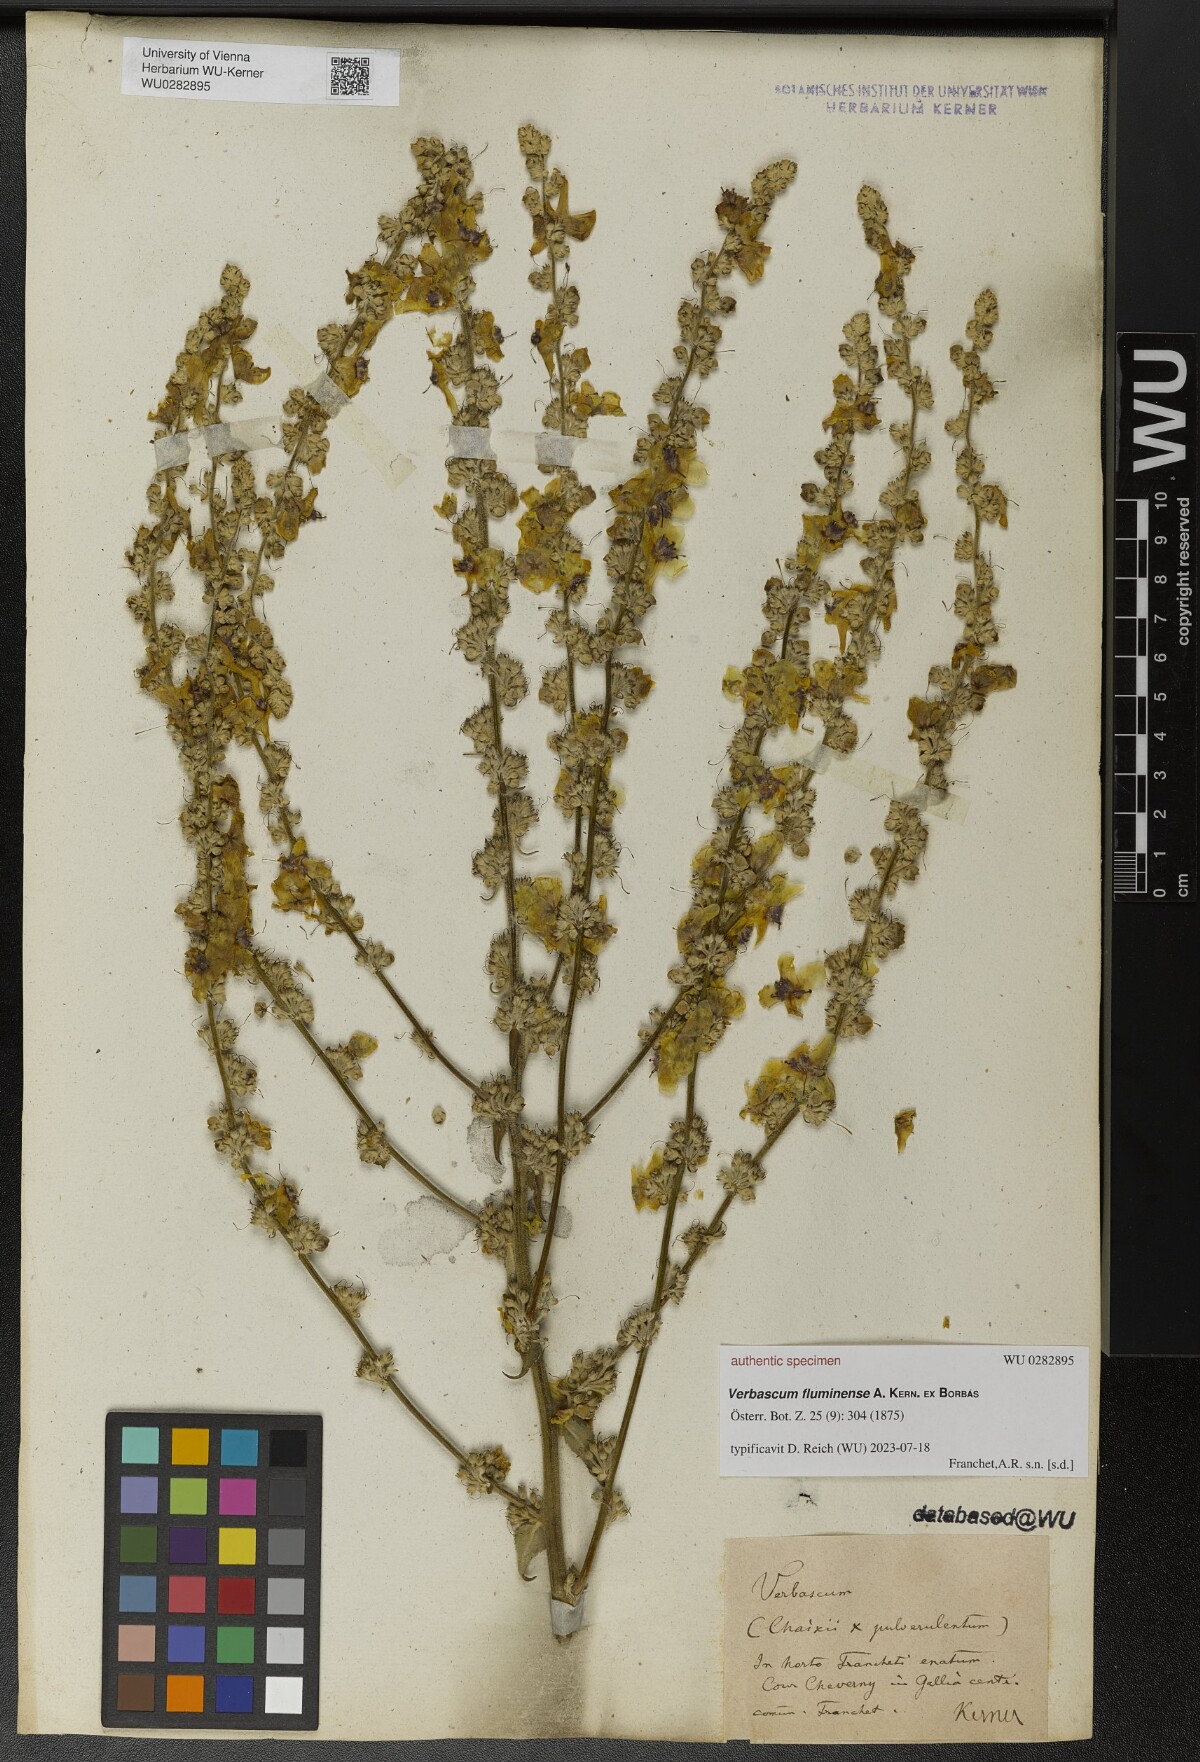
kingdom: Plantae
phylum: Tracheophyta
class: Magnoliopsida
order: Lamiales
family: Scrophulariaceae
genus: Verbascum
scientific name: Verbascum fluminense
